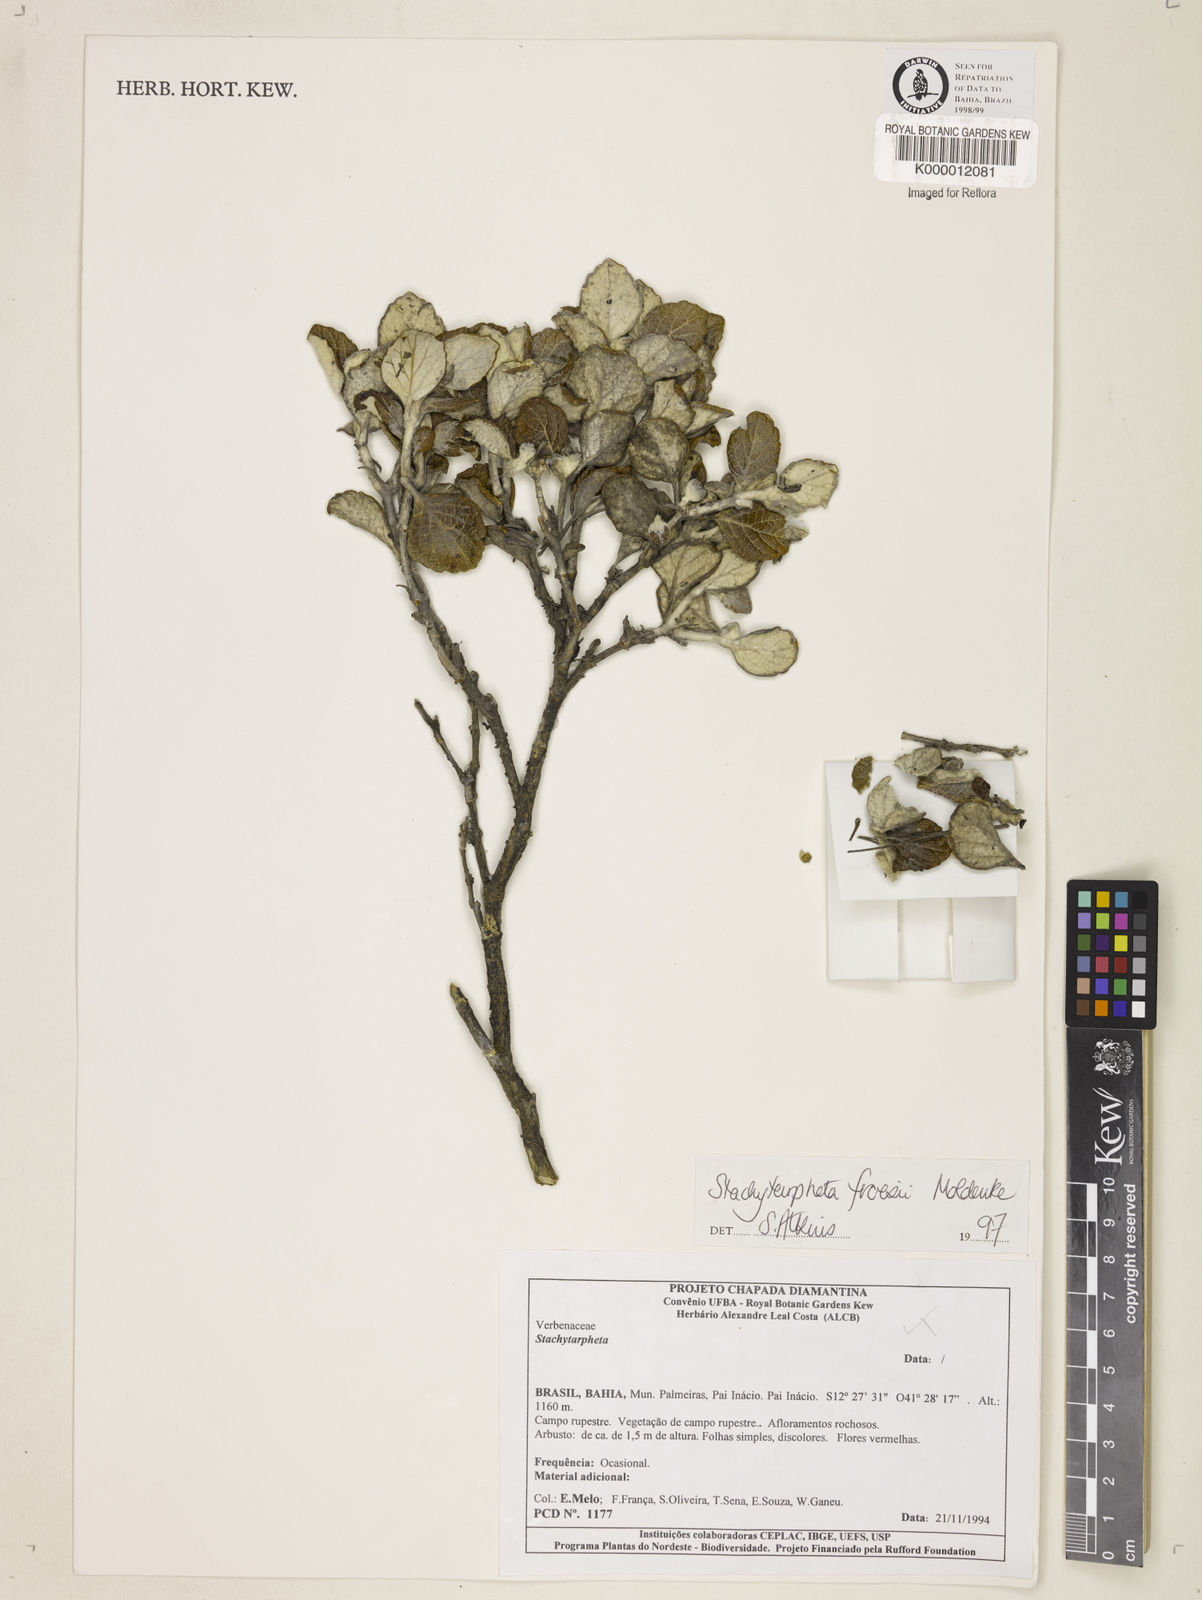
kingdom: Plantae
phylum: Tracheophyta
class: Magnoliopsida
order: Lamiales
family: Verbenaceae
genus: Stachytarpheta
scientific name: Stachytarpheta froesii
